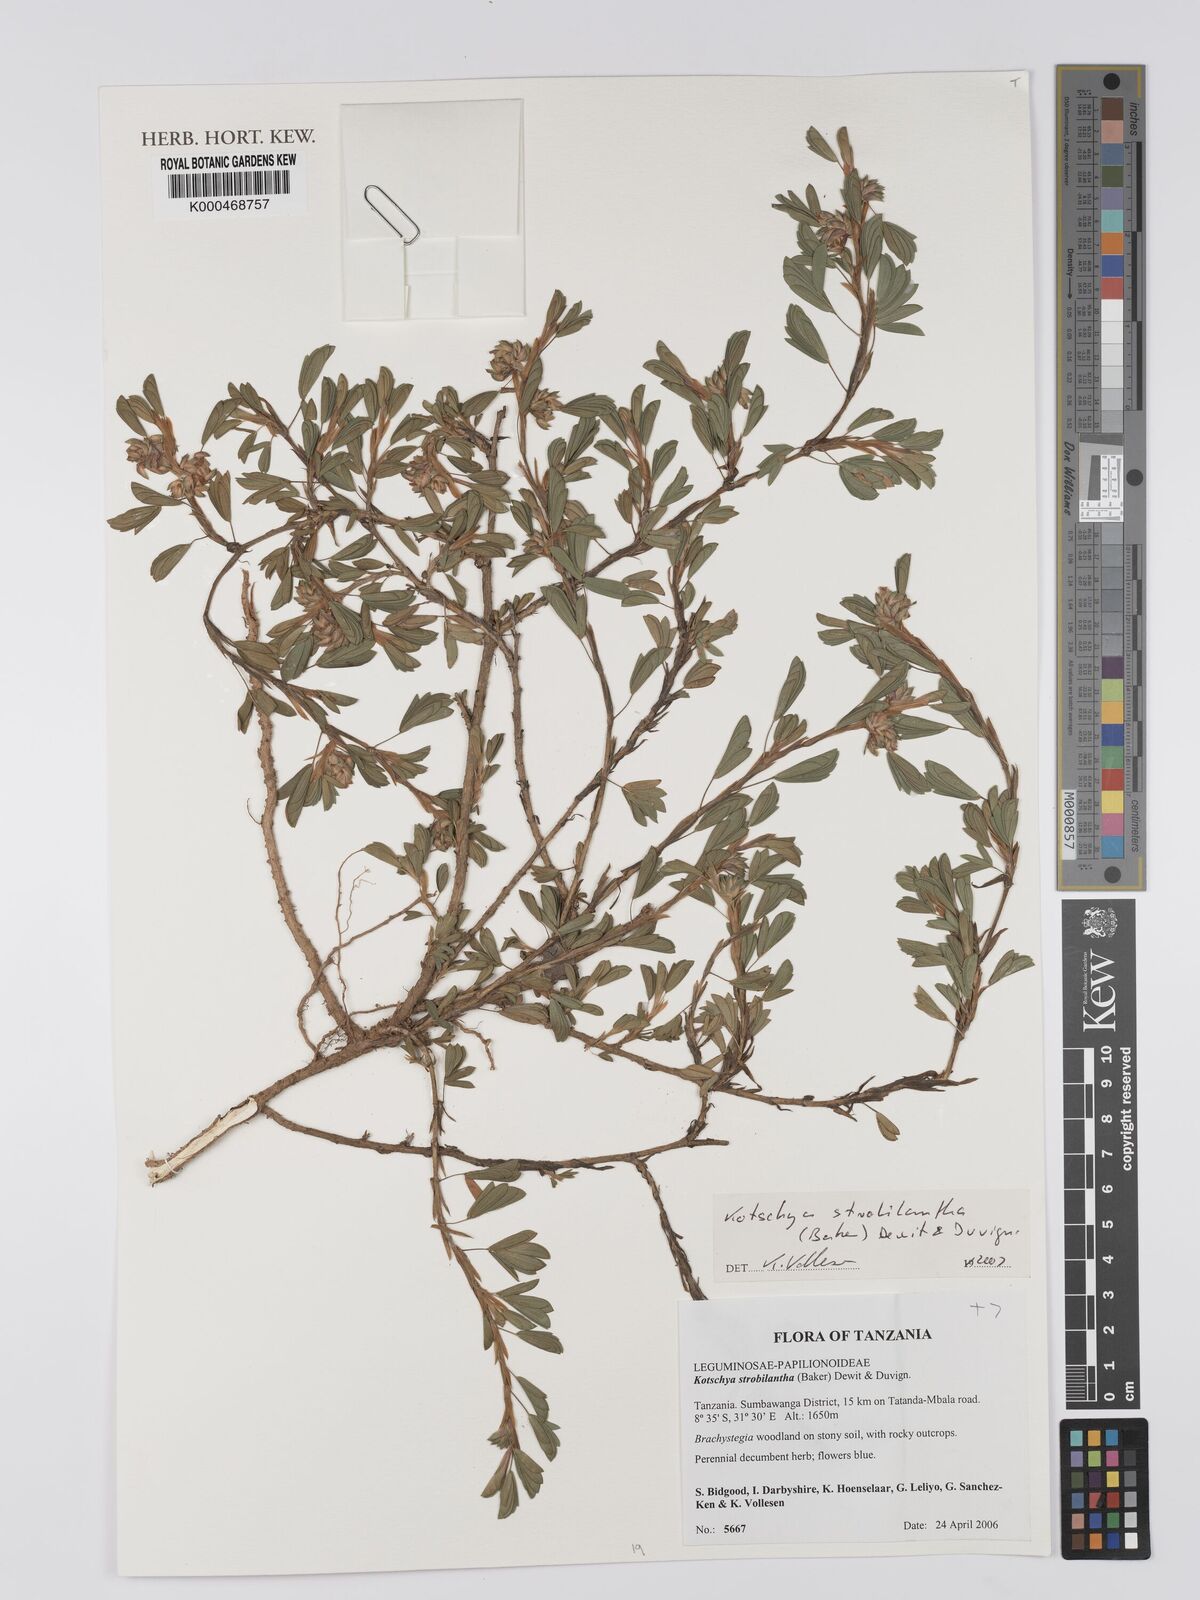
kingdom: Plantae
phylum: Tracheophyta
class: Magnoliopsida
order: Fabales
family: Fabaceae
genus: Kotschya
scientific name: Kotschya strobilantha
